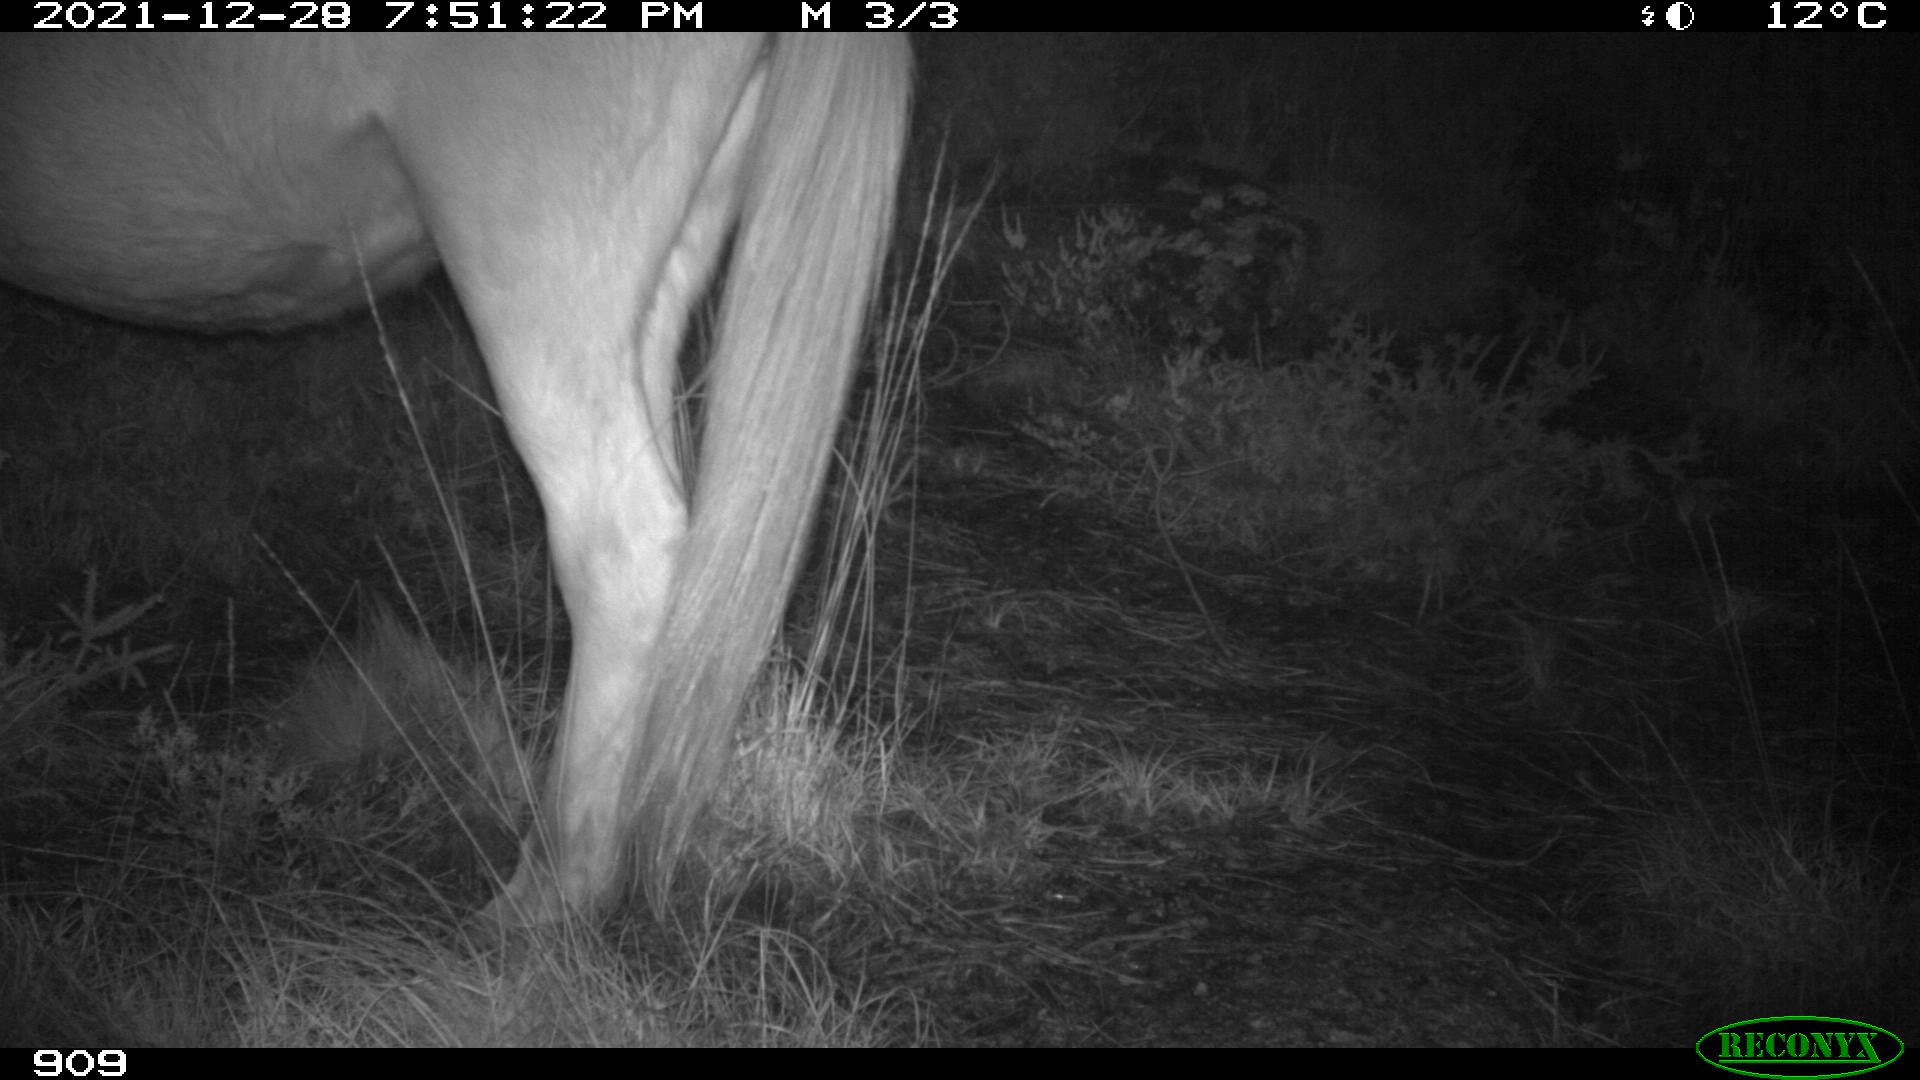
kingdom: Animalia
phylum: Chordata
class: Mammalia
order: Perissodactyla
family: Equidae
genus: Equus
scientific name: Equus caballus
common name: Horse
